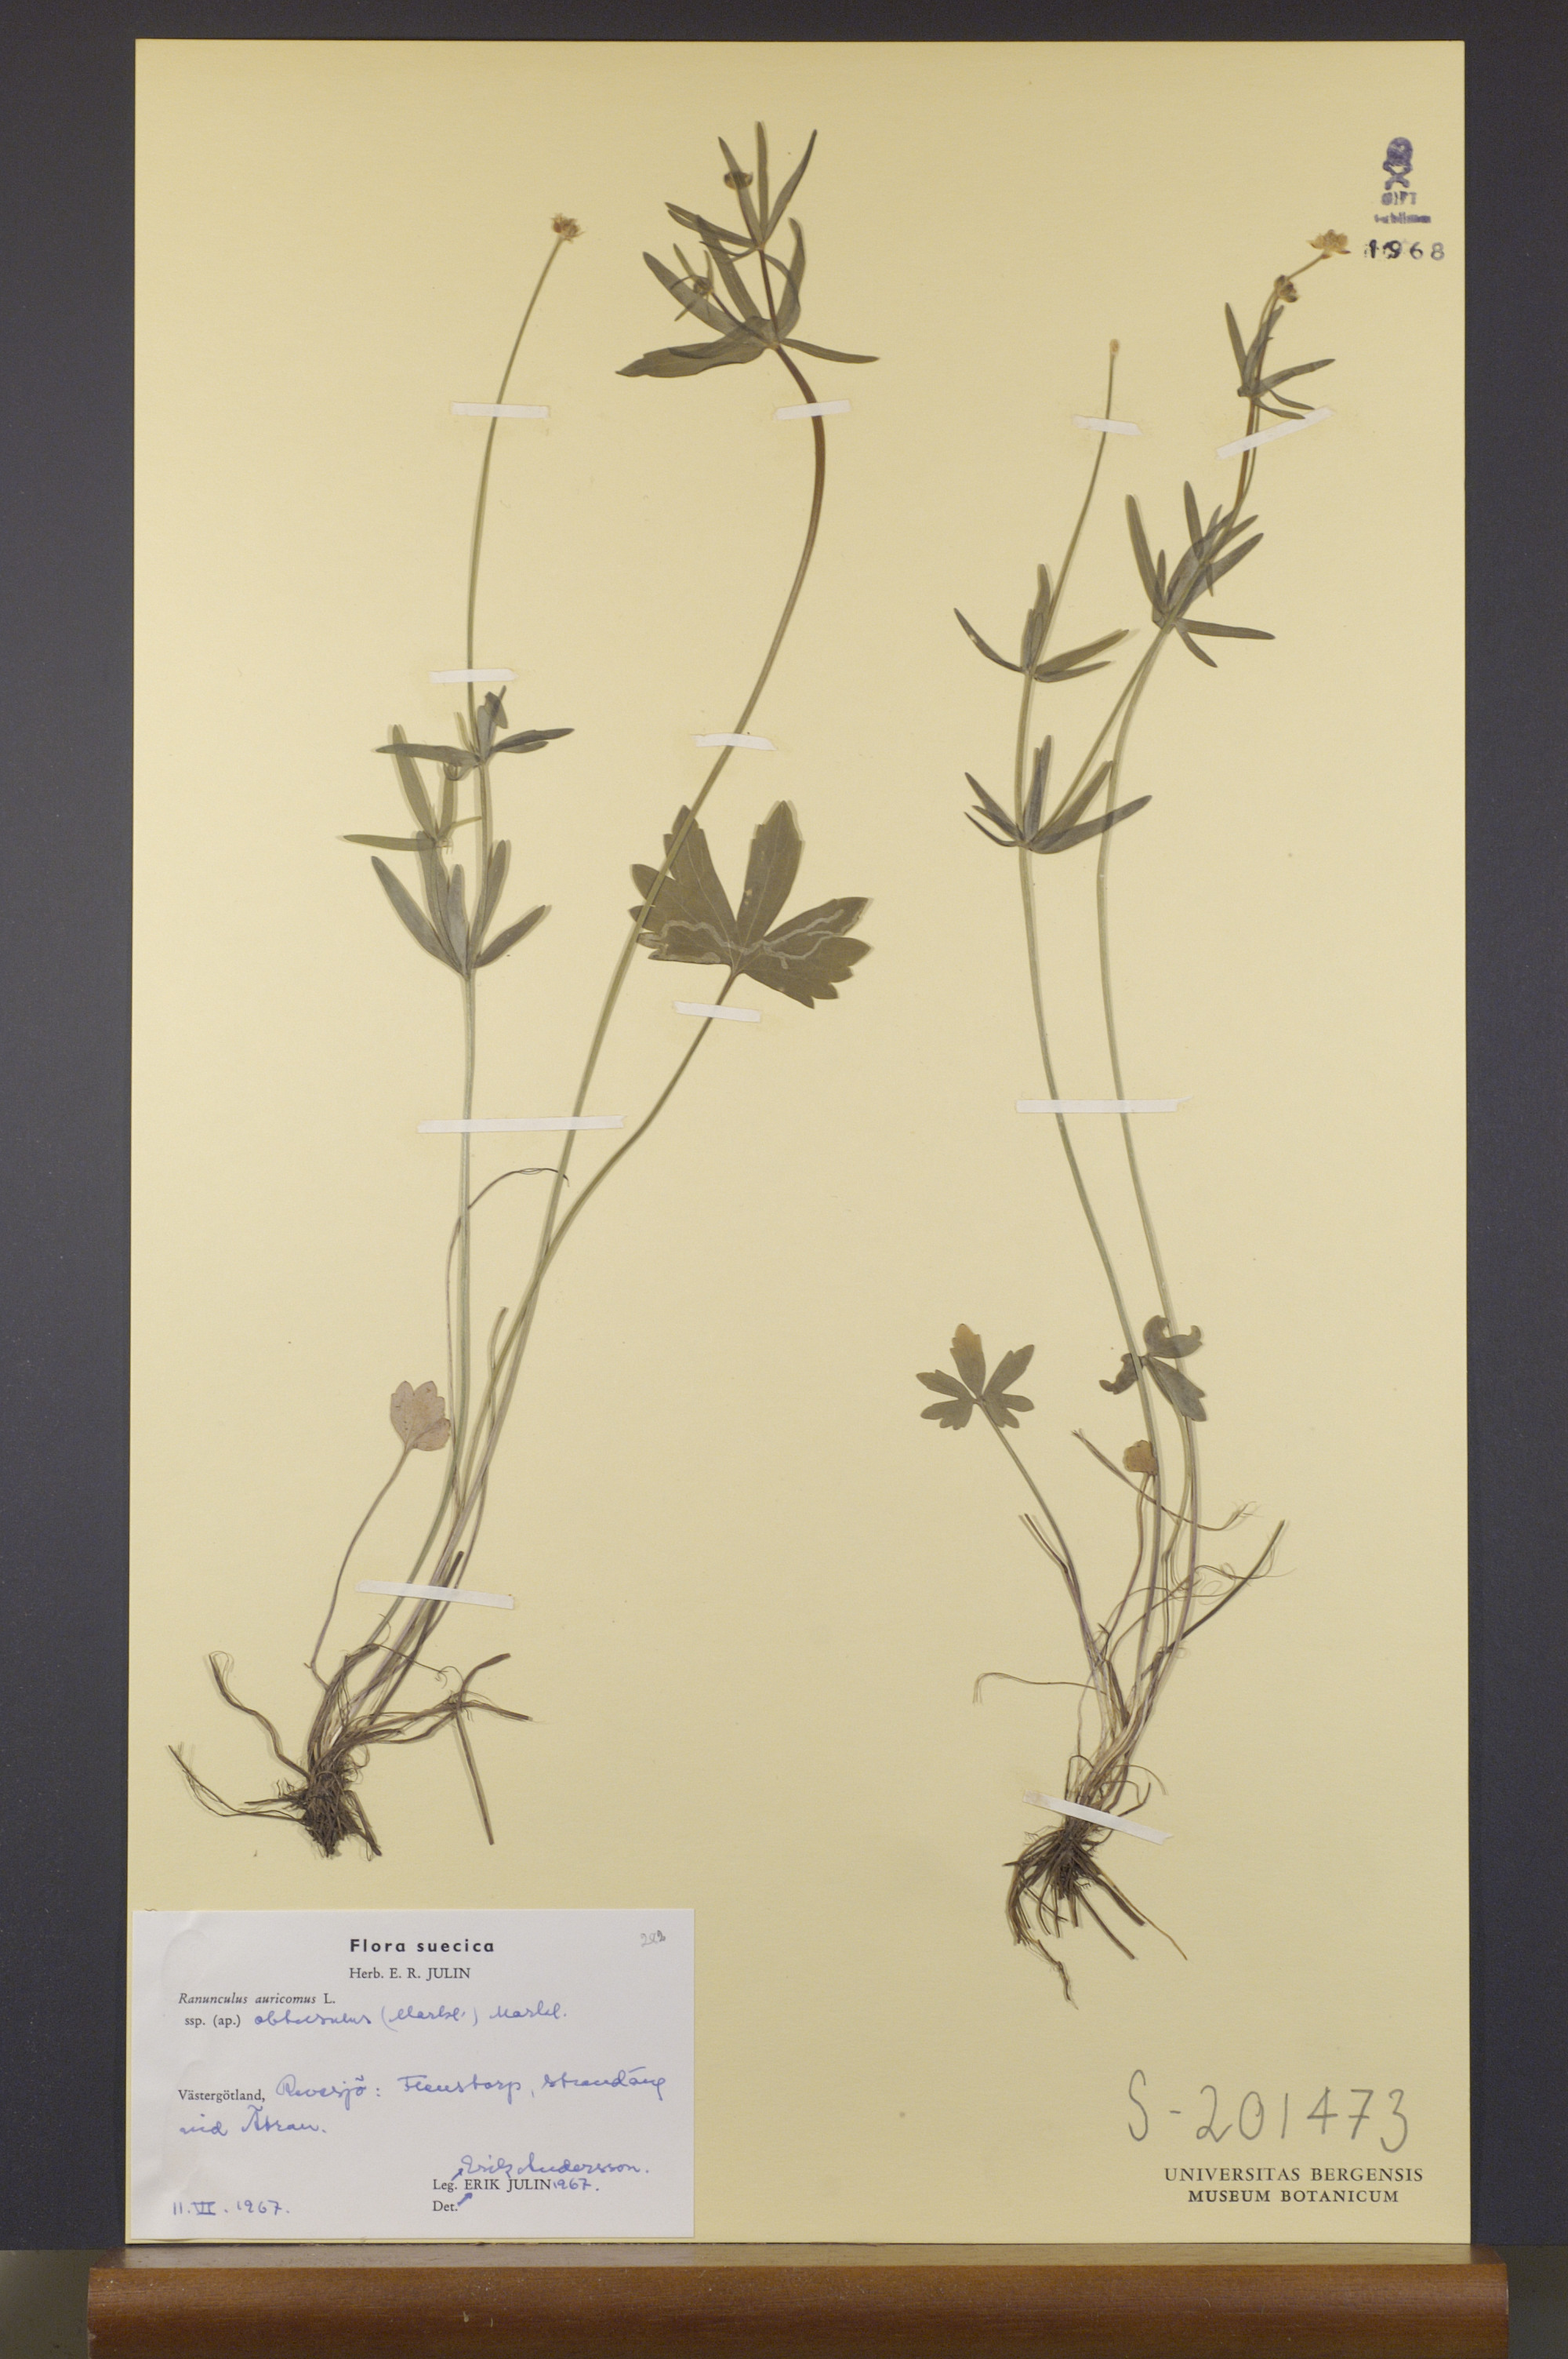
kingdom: Plantae
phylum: Tracheophyta
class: Magnoliopsida
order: Ranunculales
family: Ranunculaceae
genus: Ranunculus
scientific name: Ranunculus auricomus
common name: Goldilocks buttercup
